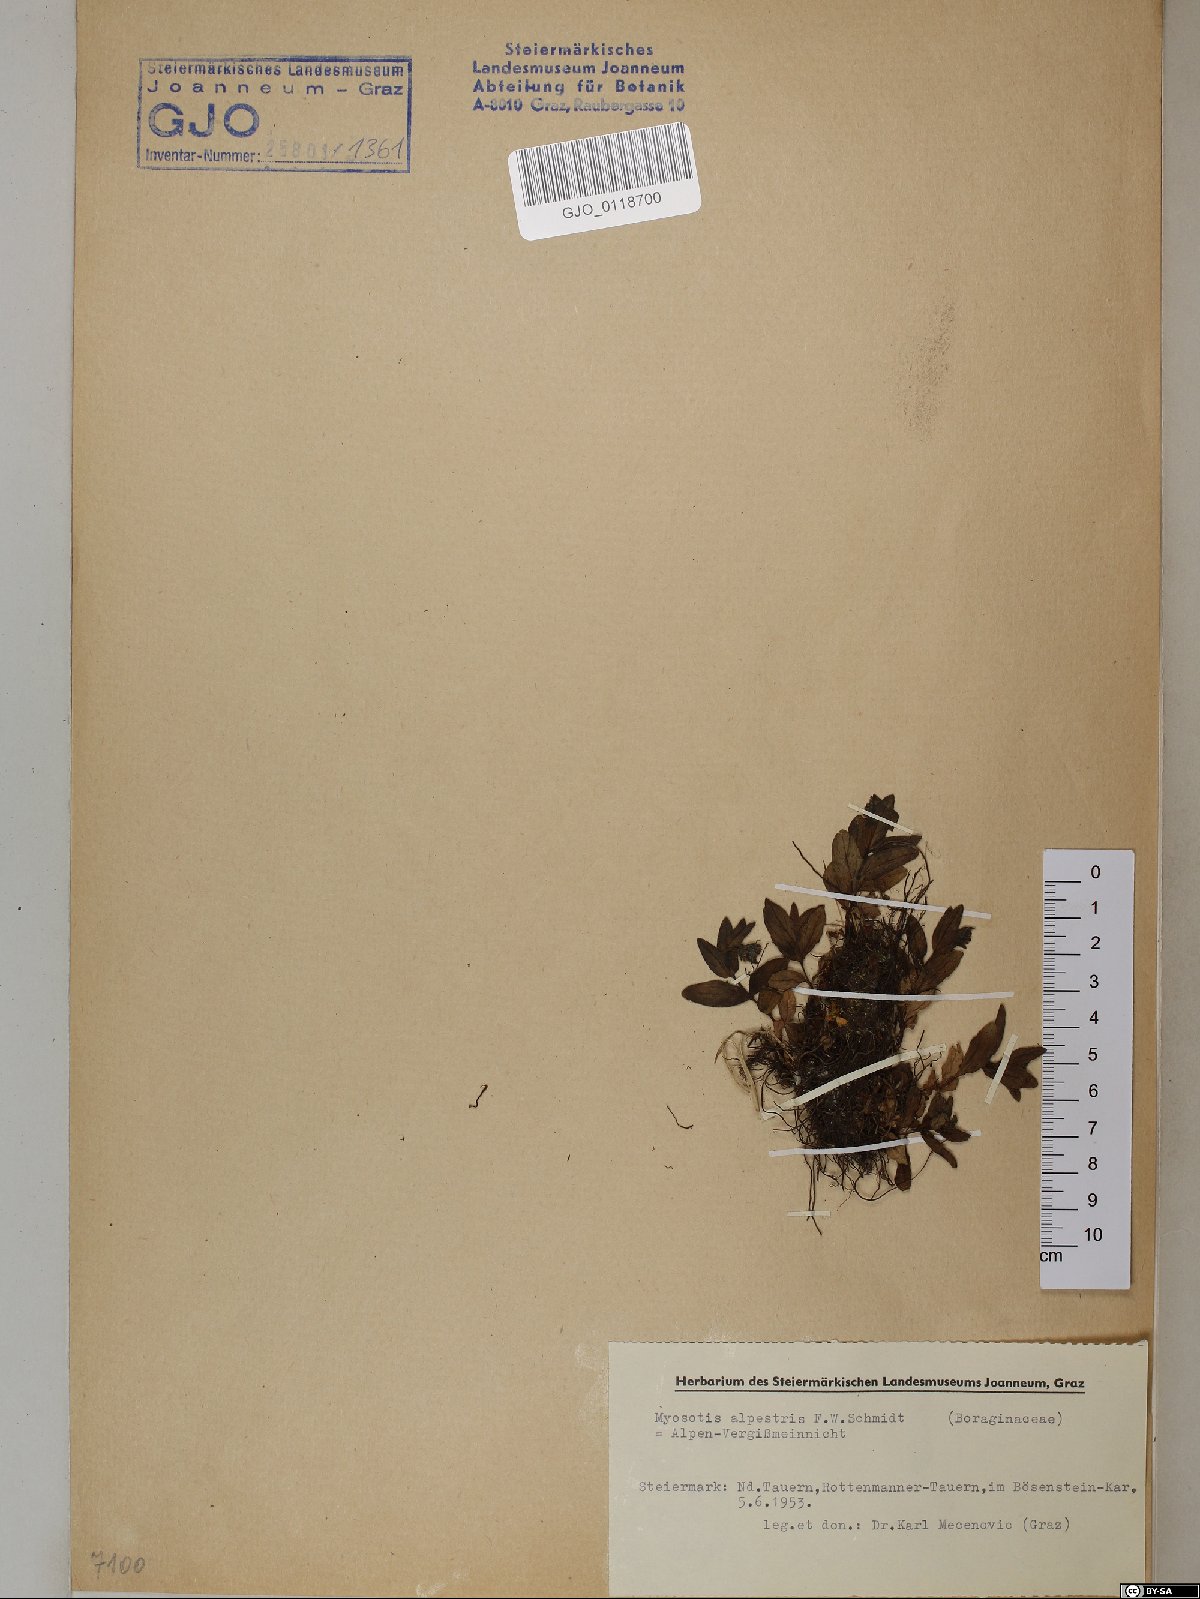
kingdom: Plantae
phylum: Tracheophyta
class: Magnoliopsida
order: Boraginales
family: Boraginaceae
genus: Myosotis
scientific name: Myosotis alpestris
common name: Alpine forget-me-not
